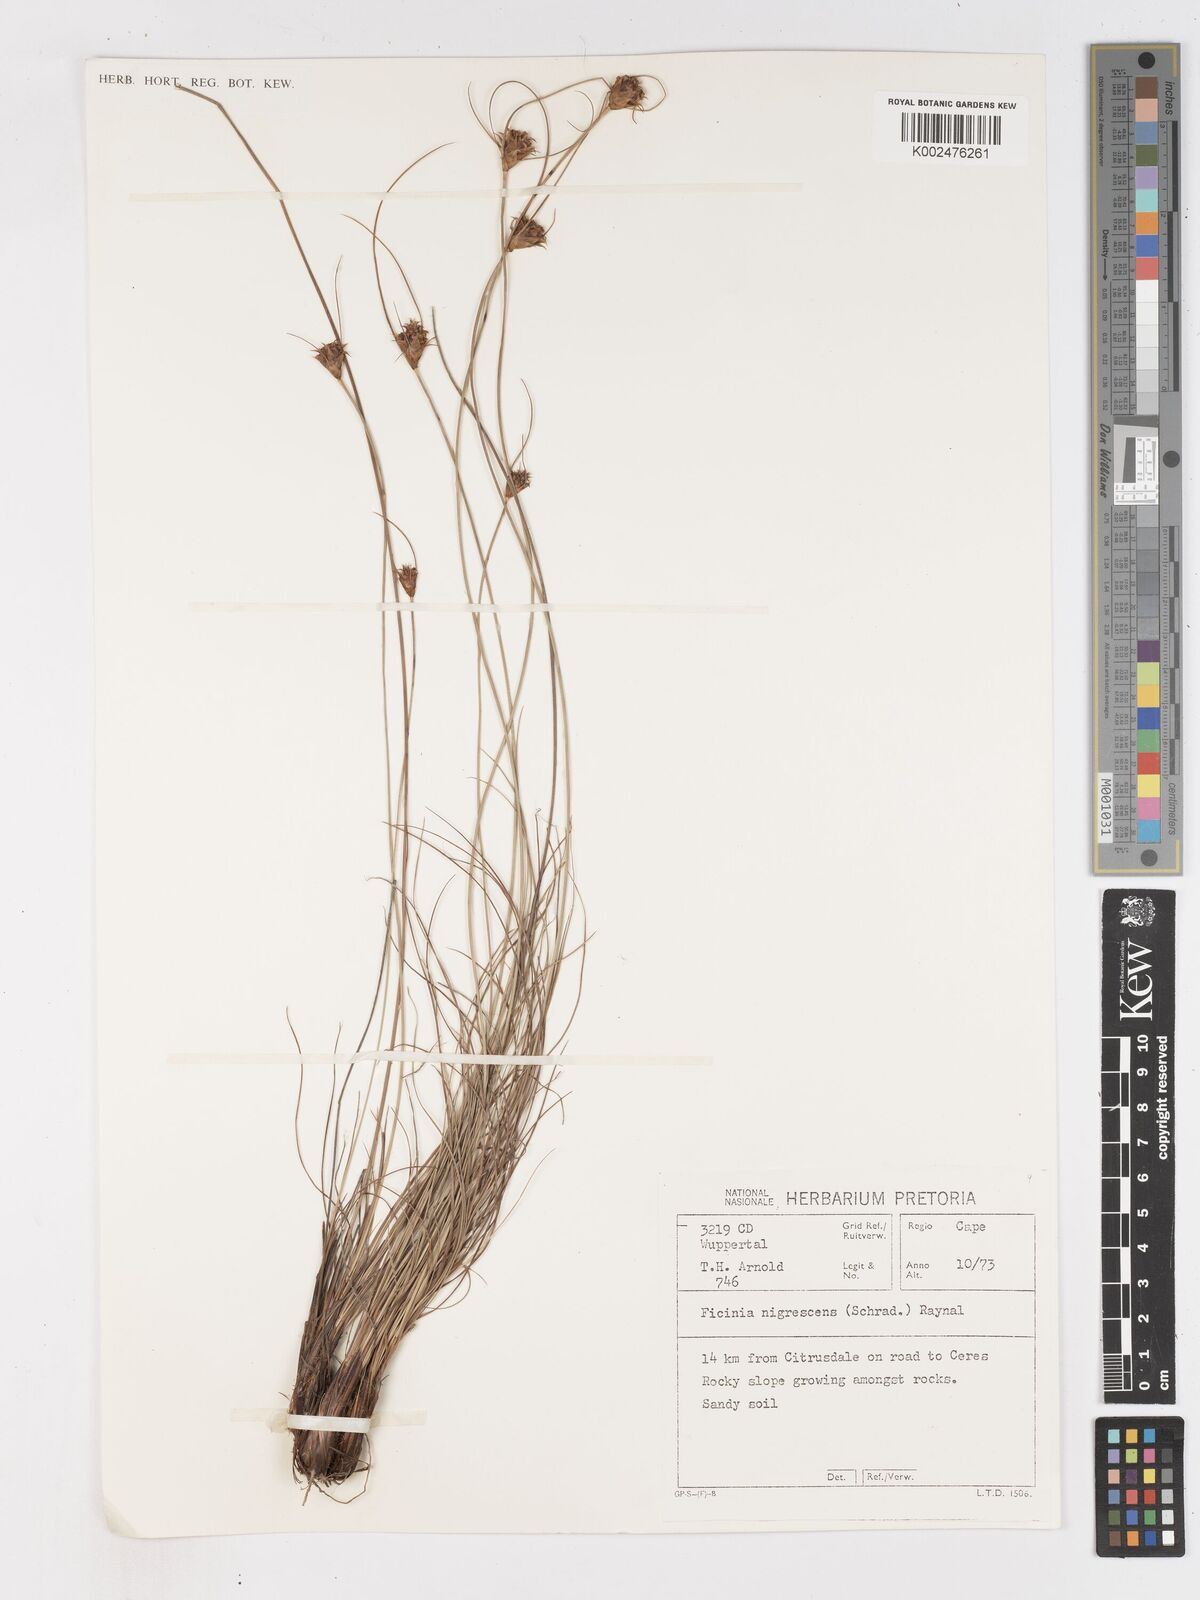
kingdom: Plantae
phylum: Tracheophyta
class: Liliopsida
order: Poales
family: Cyperaceae
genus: Ficinia
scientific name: Ficinia nigrescens
